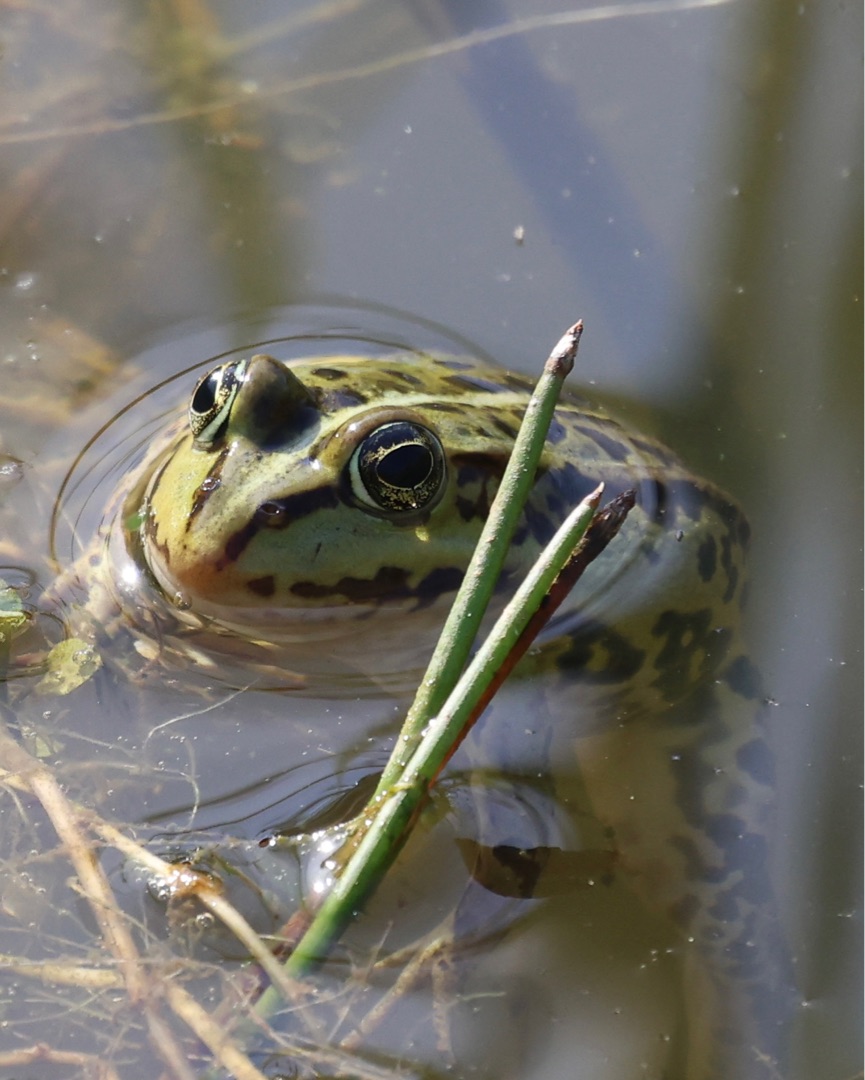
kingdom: Animalia
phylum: Chordata
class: Amphibia
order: Anura
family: Ranidae
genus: Pelophylax
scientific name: Pelophylax lessonae
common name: Grøn frø
